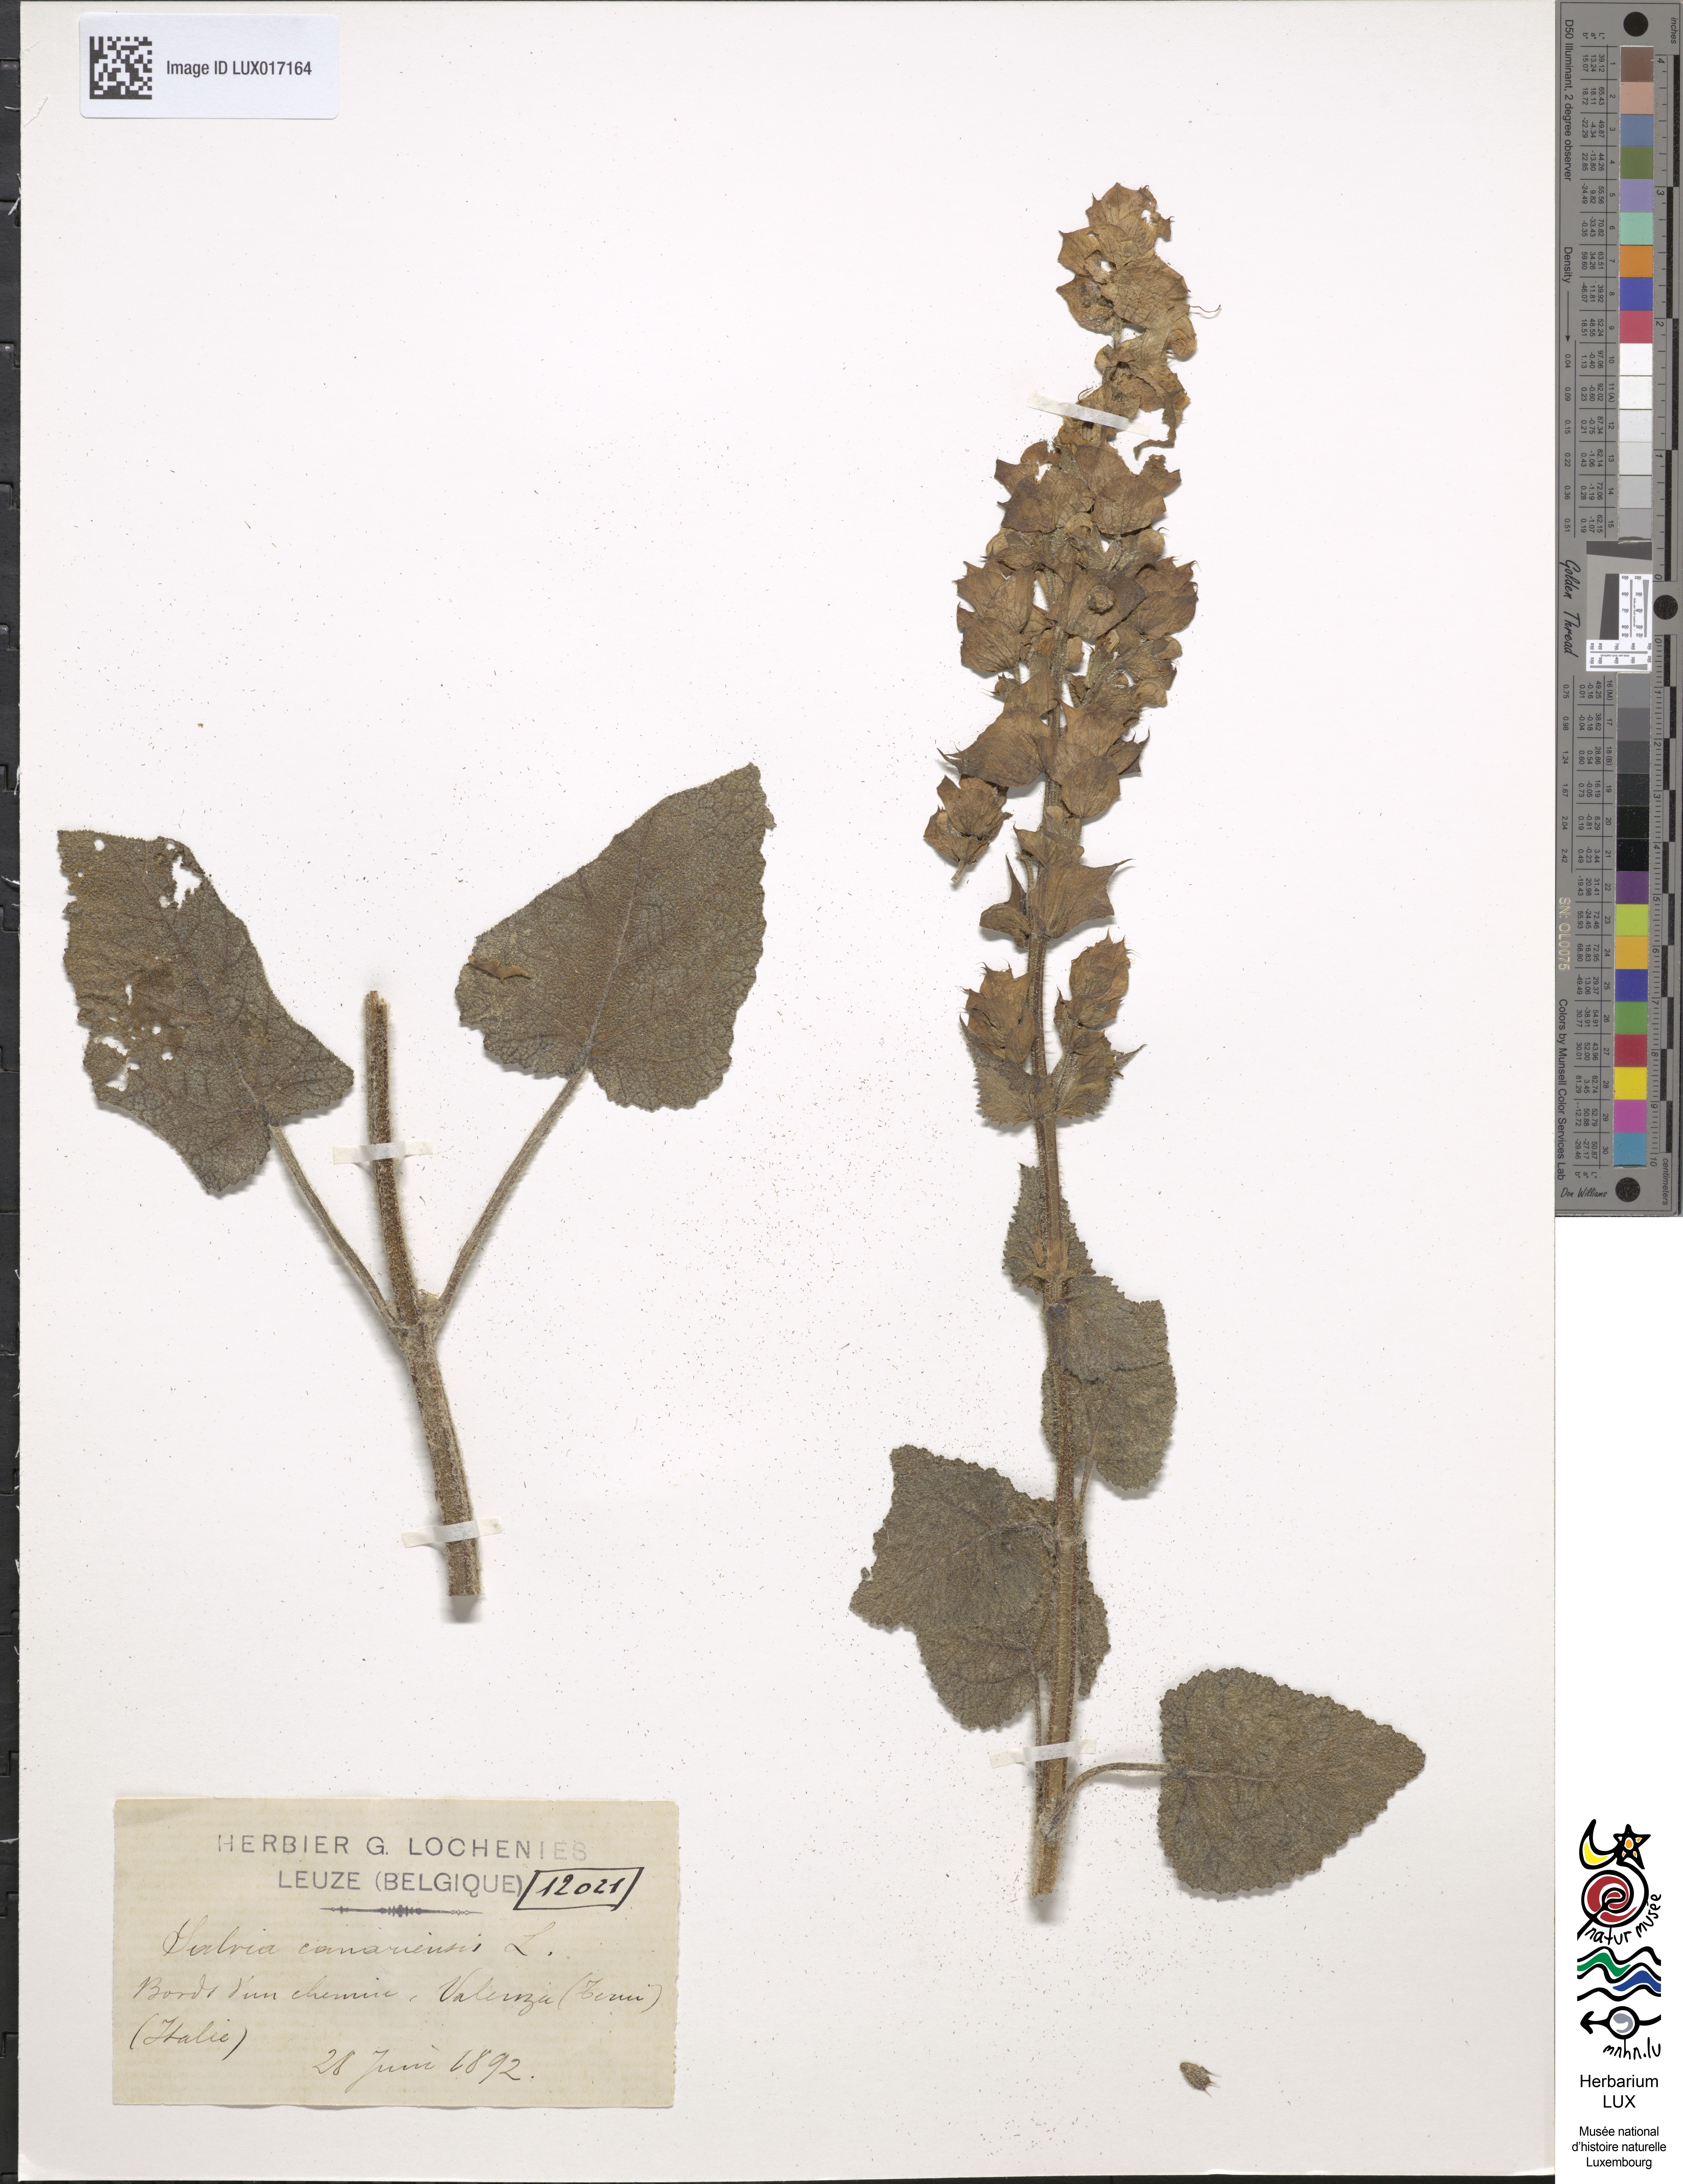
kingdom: Plantae
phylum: Tracheophyta
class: Magnoliopsida
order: Lamiales
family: Lamiaceae
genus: Salvia
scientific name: Salvia canariensis
